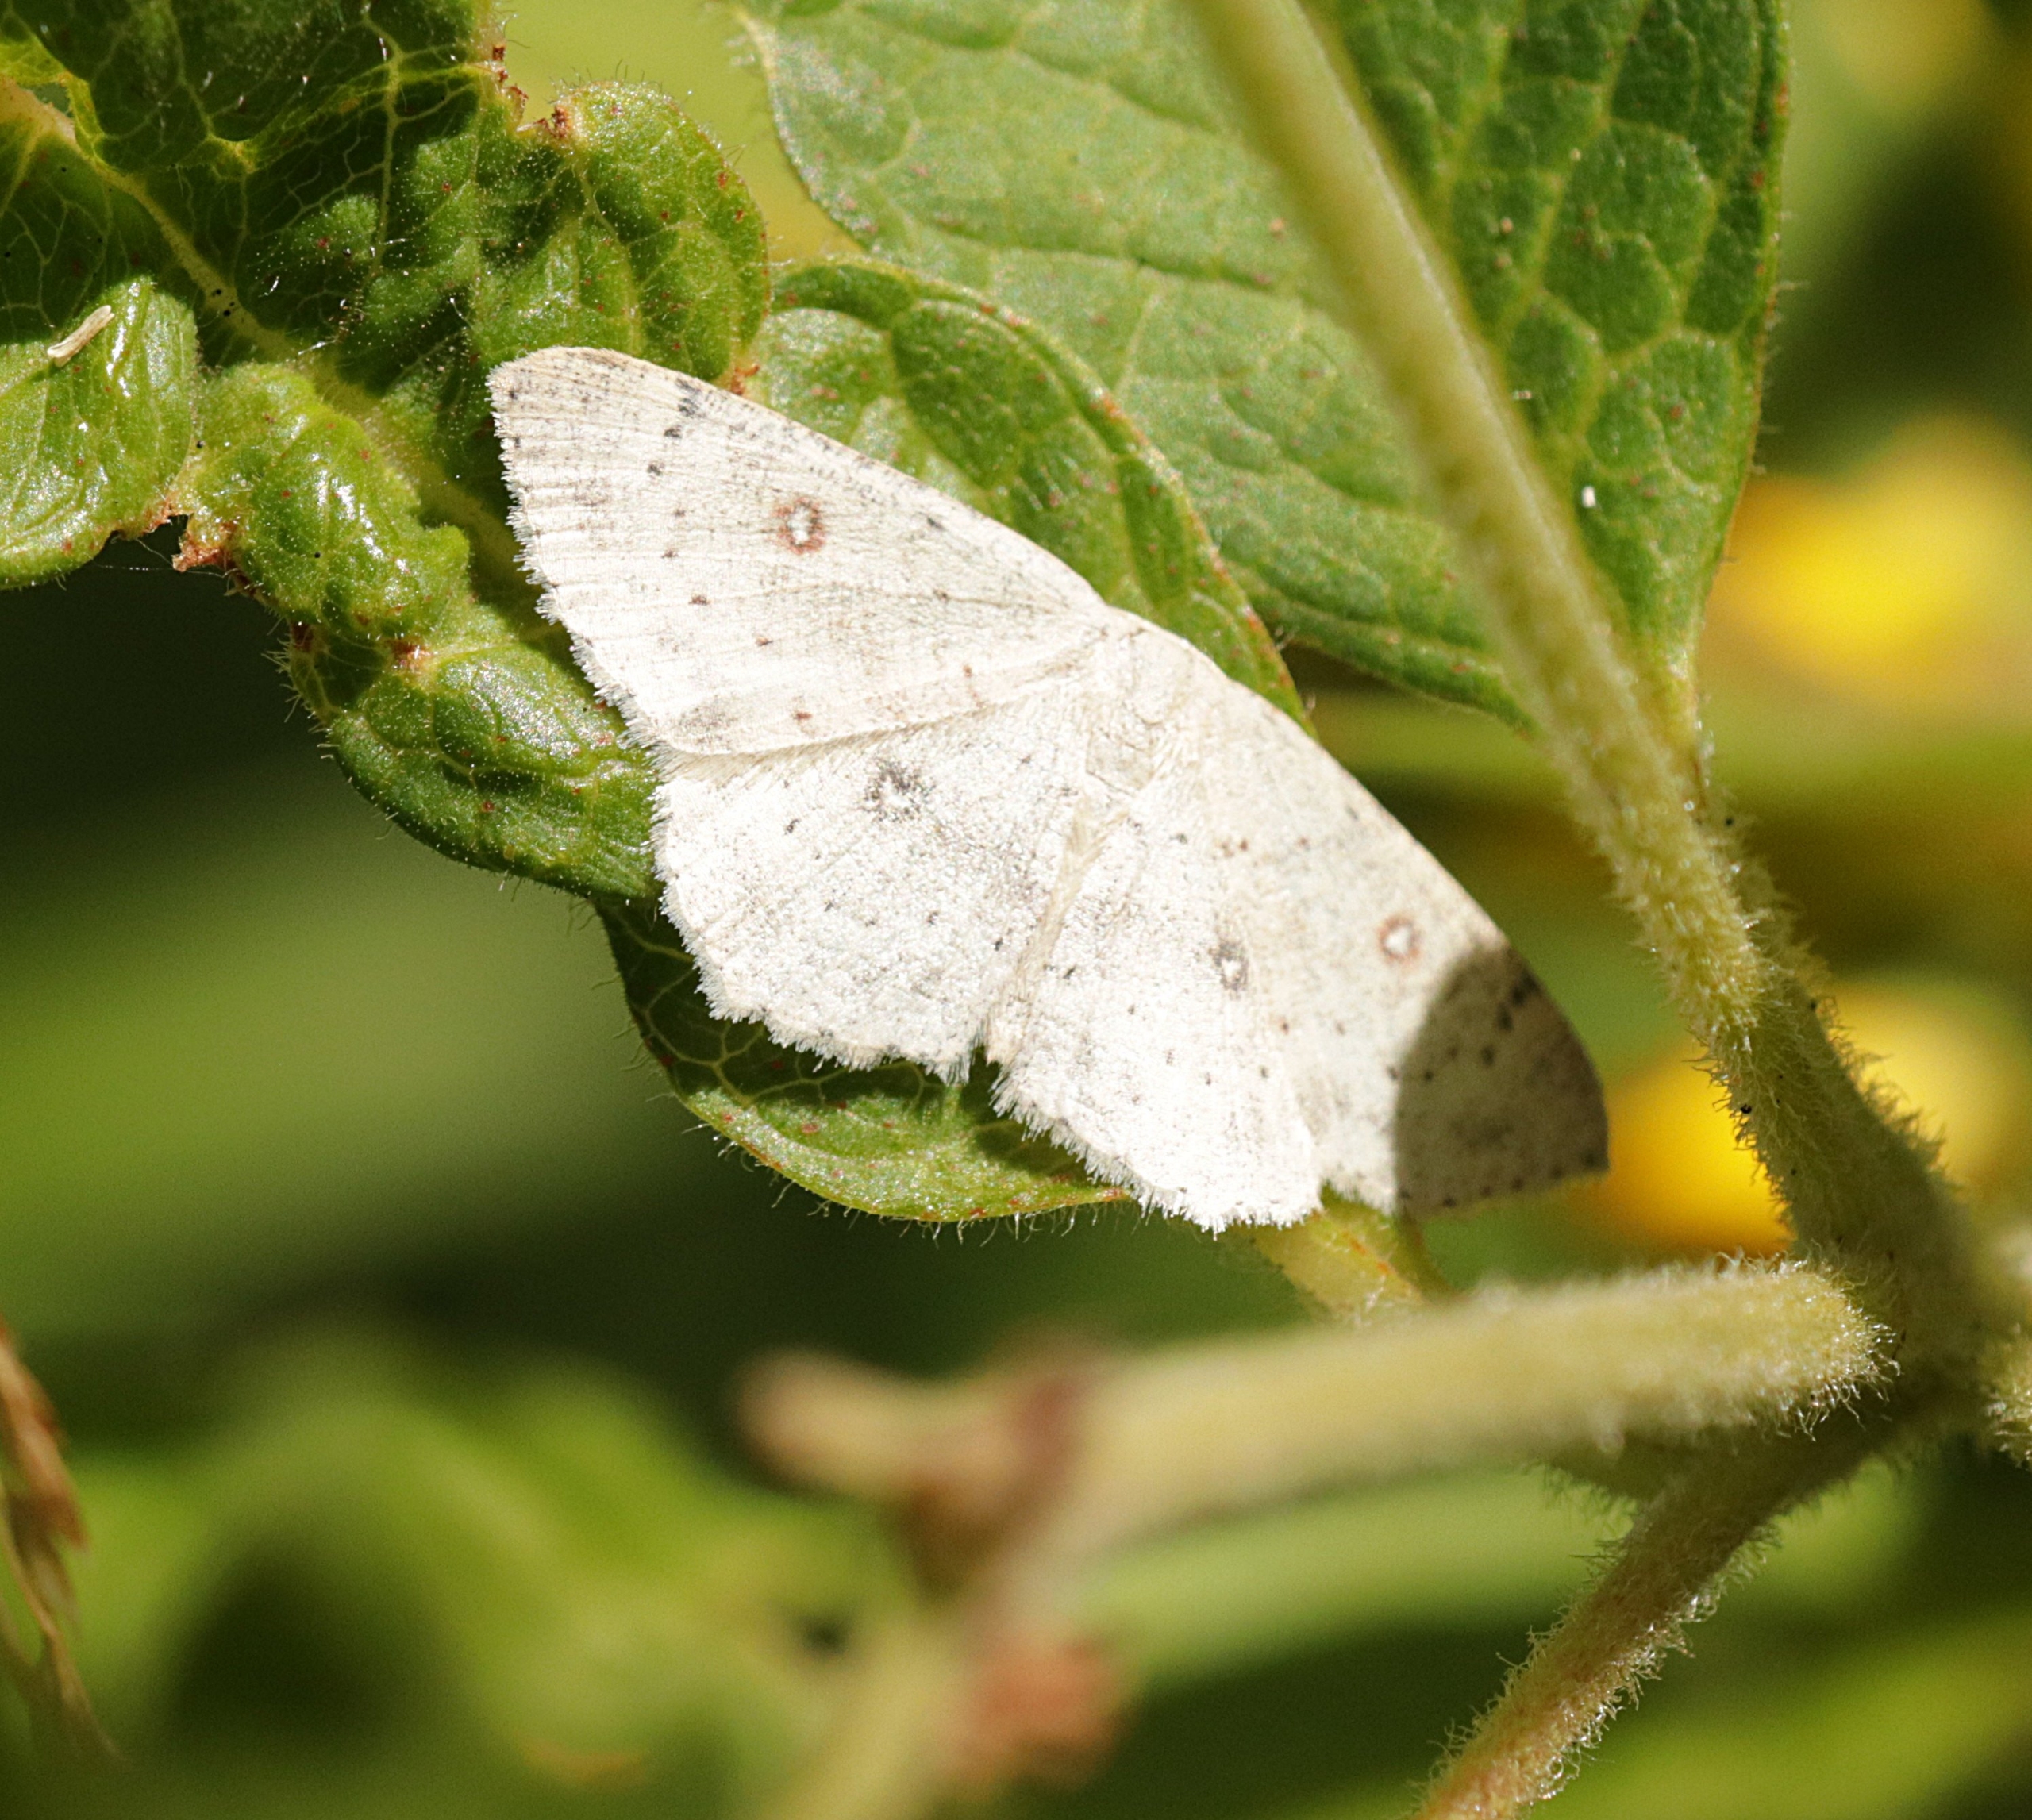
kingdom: Animalia
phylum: Arthropoda
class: Insecta
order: Lepidoptera
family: Geometridae
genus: Cyclophora
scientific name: Cyclophora albipunctata
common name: Birke-bæltemåler
